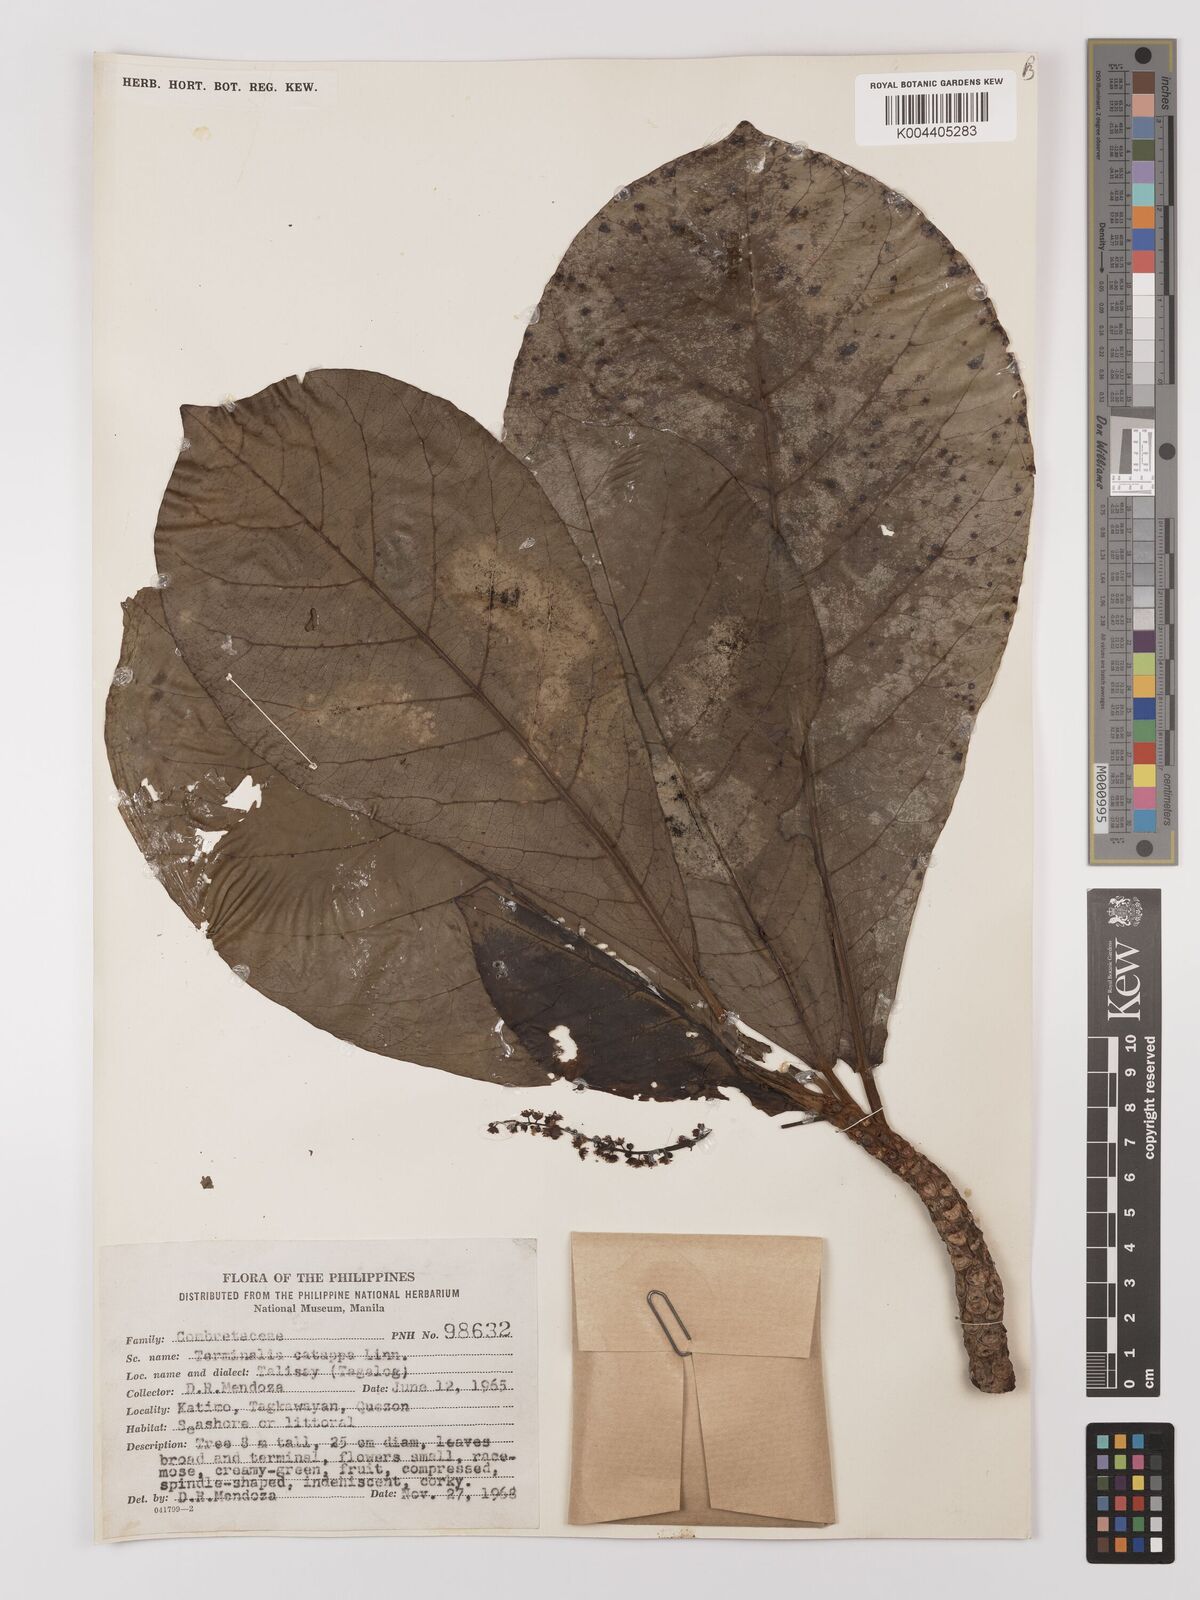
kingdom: Plantae
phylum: Tracheophyta
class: Magnoliopsida
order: Myrtales
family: Combretaceae
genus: Terminalia
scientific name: Terminalia catappa
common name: Tropical almond
